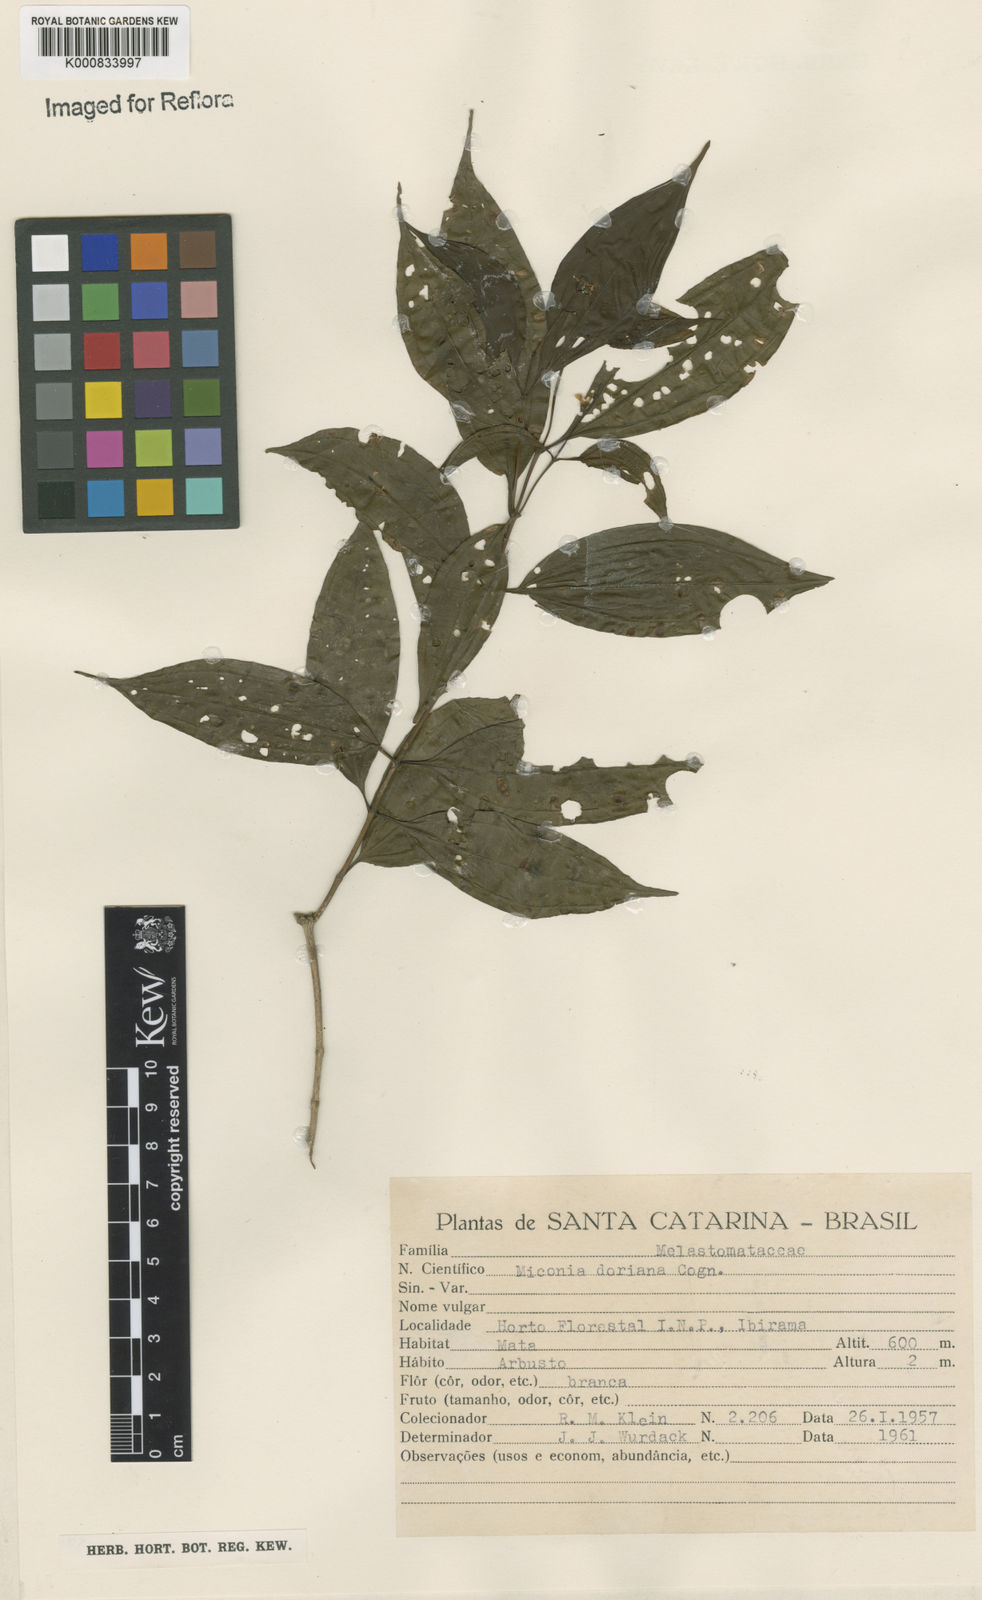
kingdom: Plantae
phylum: Tracheophyta
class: Magnoliopsida
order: Myrtales
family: Melastomataceae
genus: Miconia
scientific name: Miconia doriana
